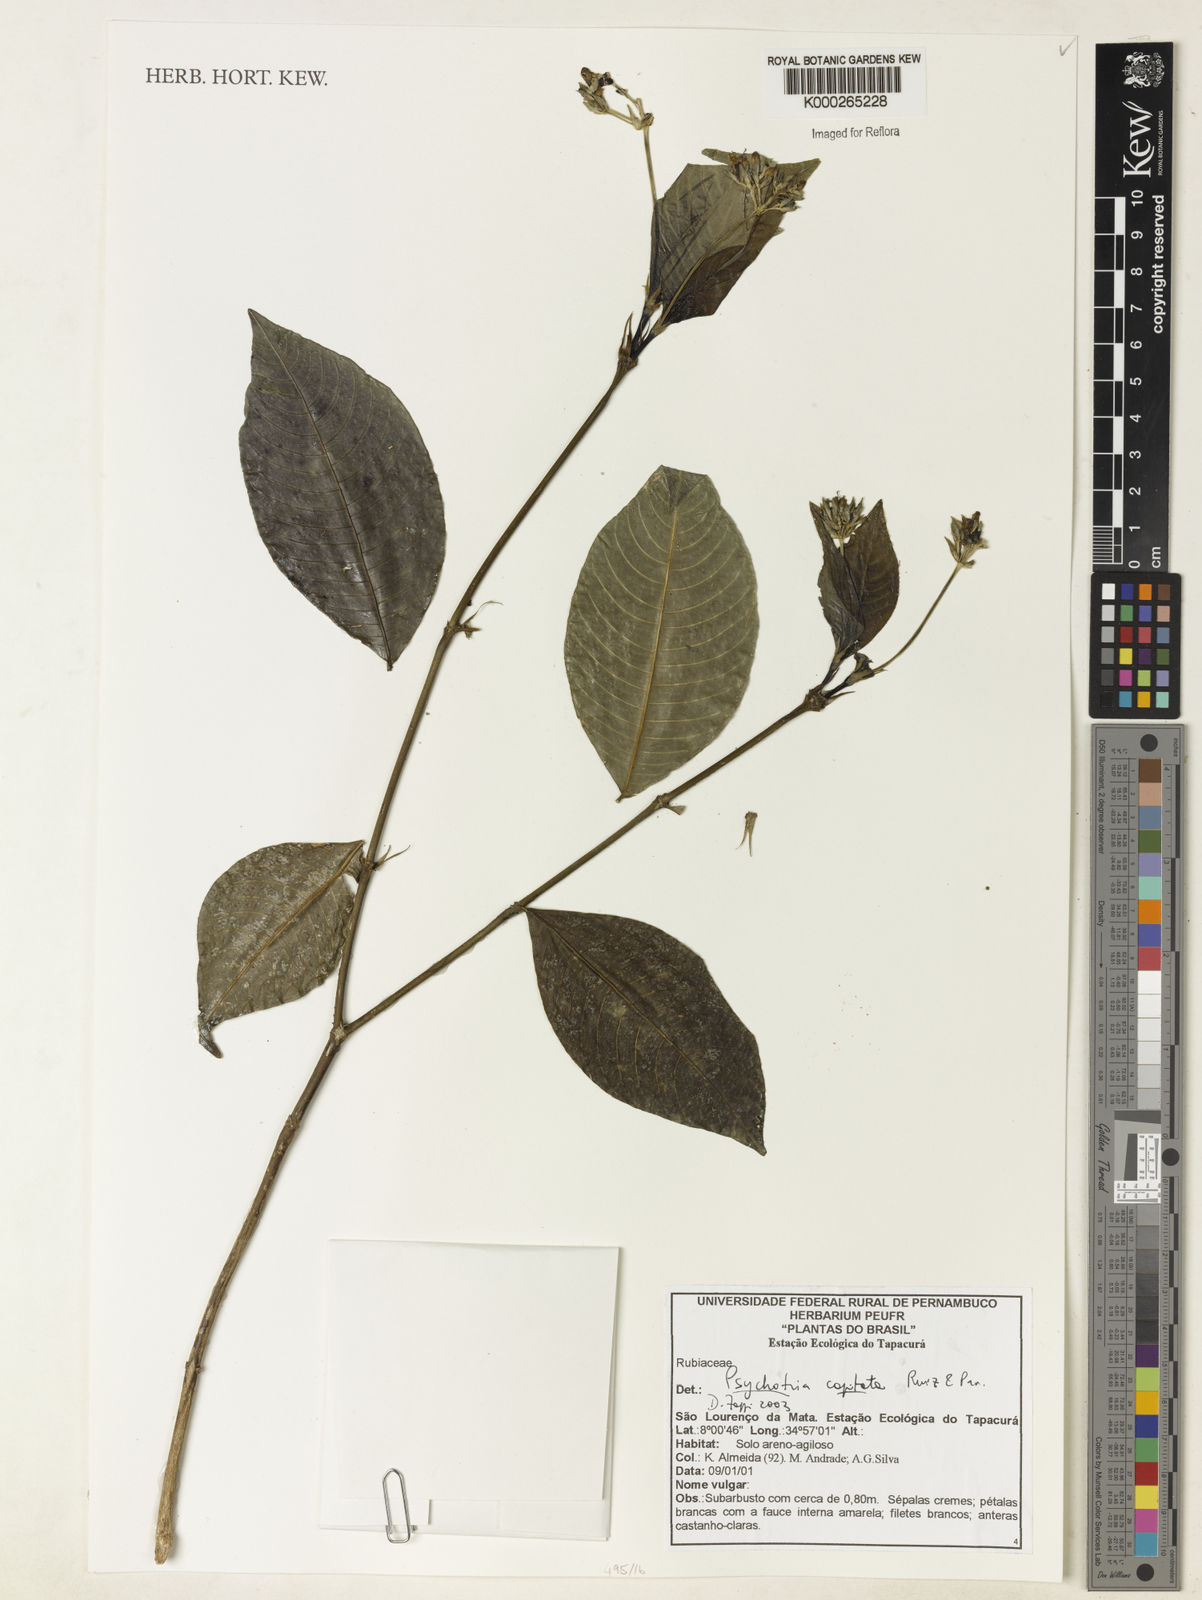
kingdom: Plantae
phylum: Tracheophyta
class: Magnoliopsida
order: Gentianales
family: Rubiaceae
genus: Psychotria
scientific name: Psychotria
